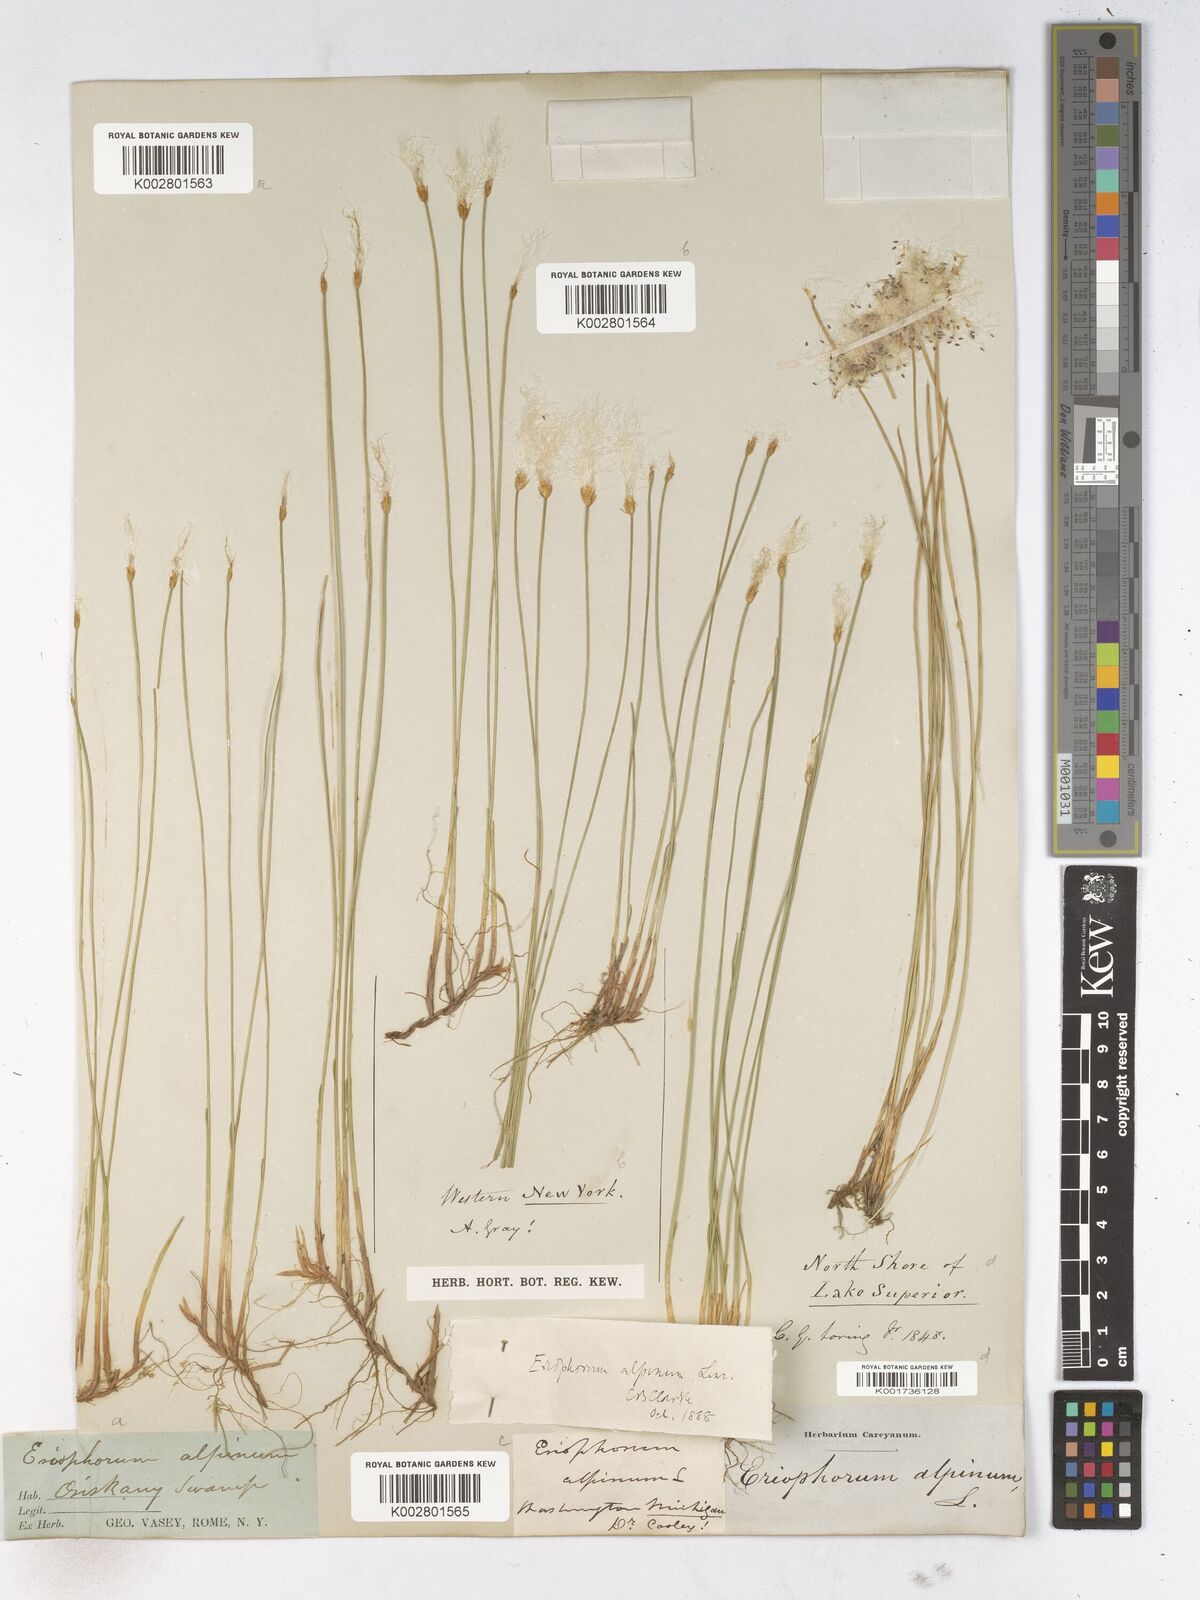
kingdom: Plantae
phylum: Tracheophyta
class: Liliopsida
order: Poales
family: Cyperaceae
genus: Trichophorum
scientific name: Trichophorum alpinum
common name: Alpine bulrush
